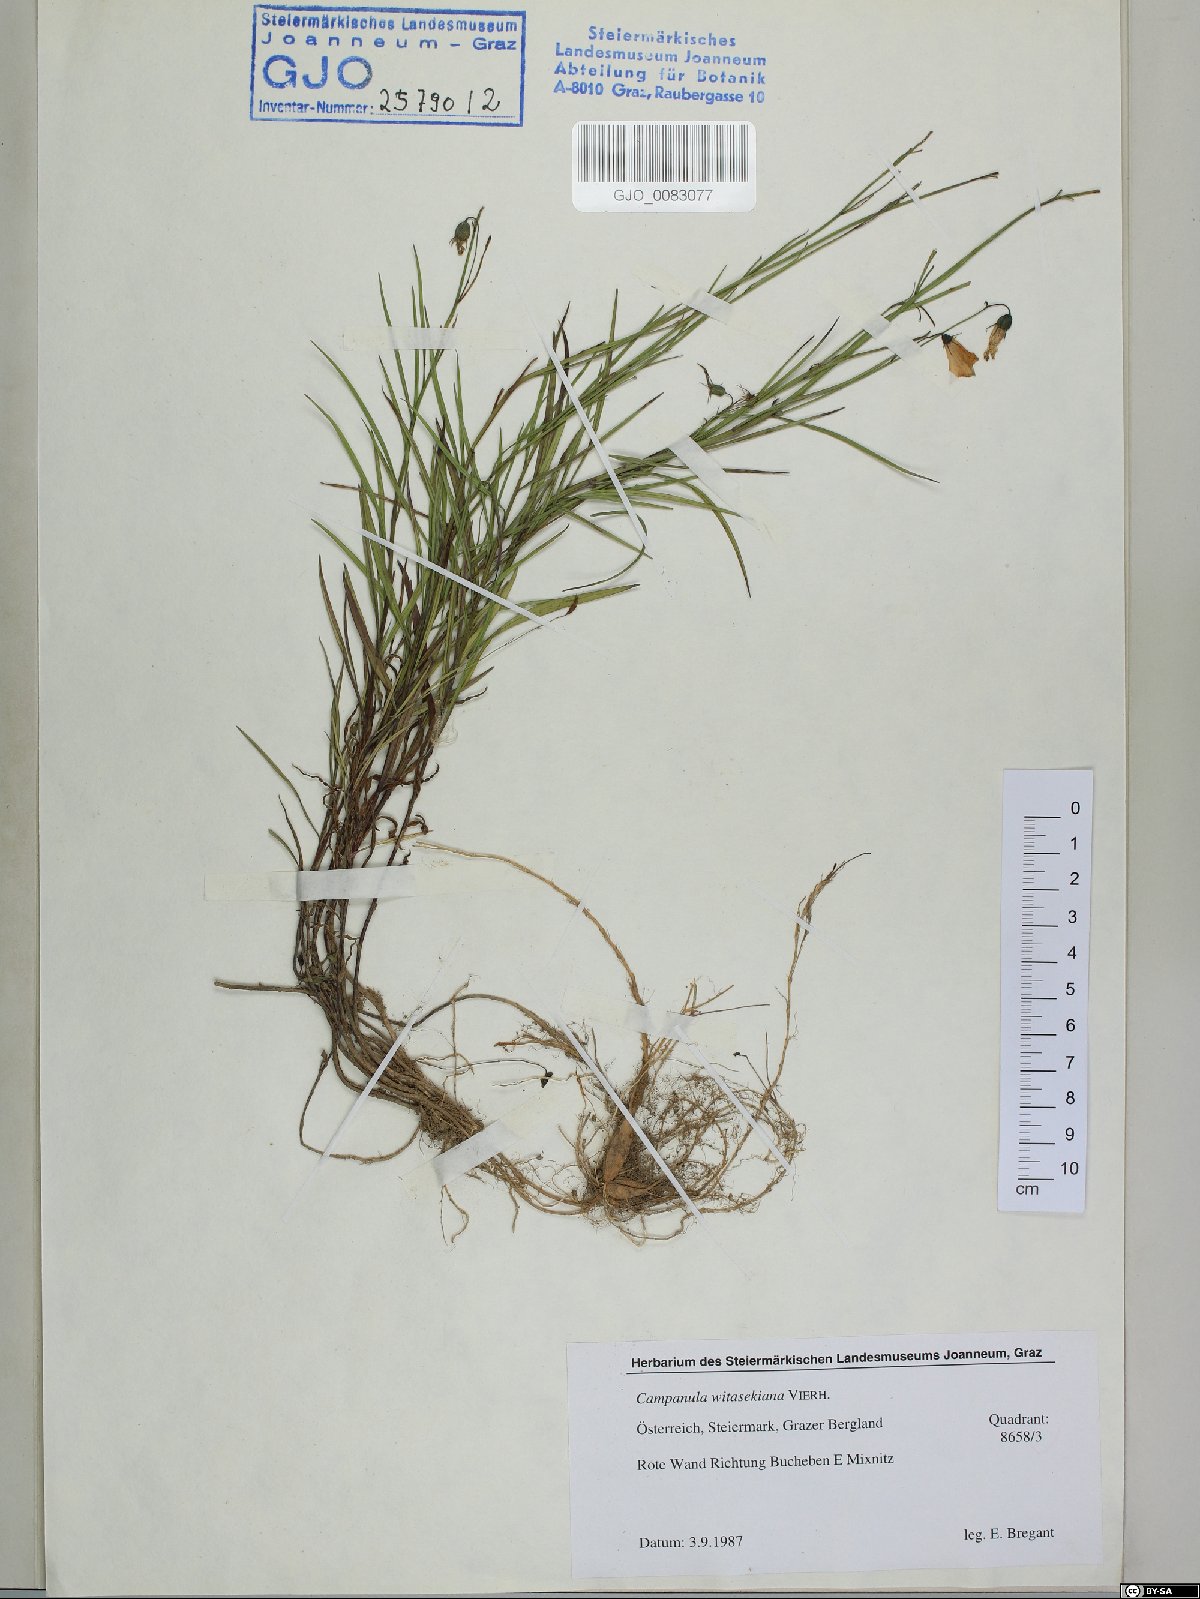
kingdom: Plantae
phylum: Tracheophyta
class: Magnoliopsida
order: Asterales
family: Campanulaceae
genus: Campanula
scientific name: Campanula witasekiana
